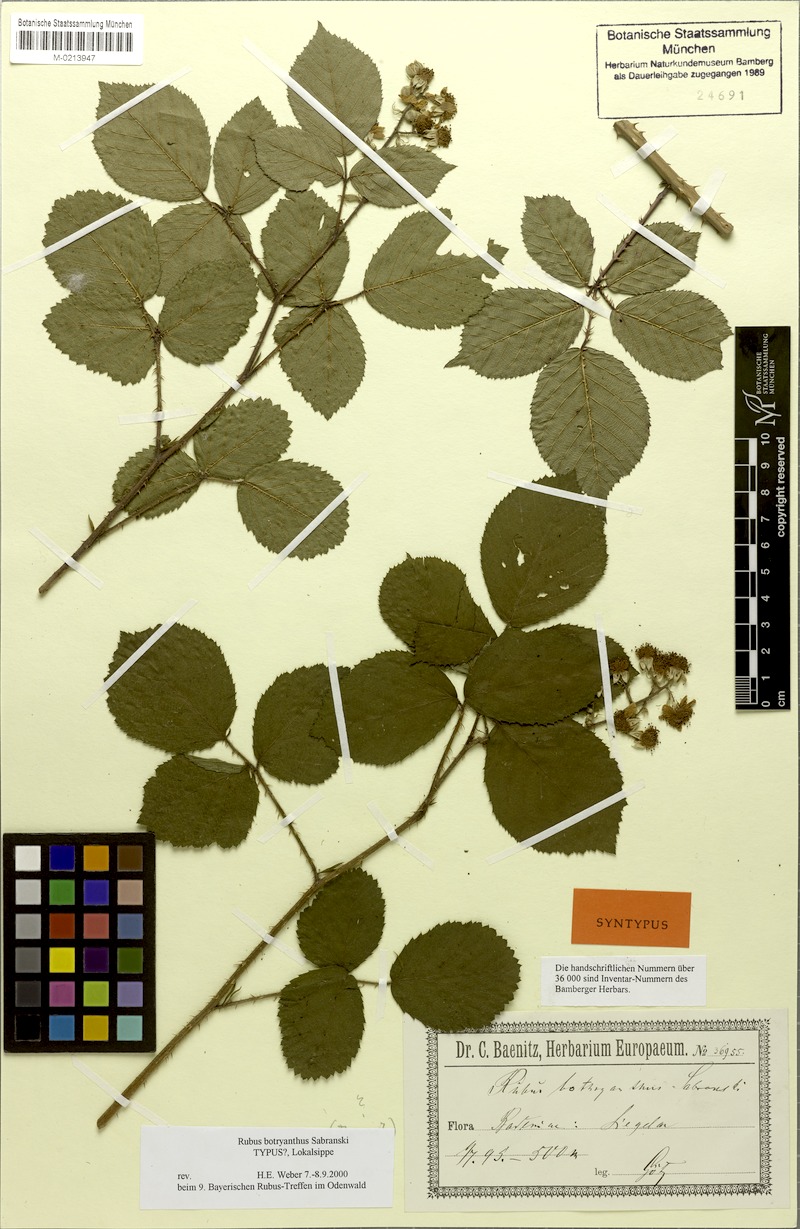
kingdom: Plantae
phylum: Tracheophyta
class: Magnoliopsida
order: Rosales
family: Rosaceae
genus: Rubus
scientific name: Rubus botryanthus
